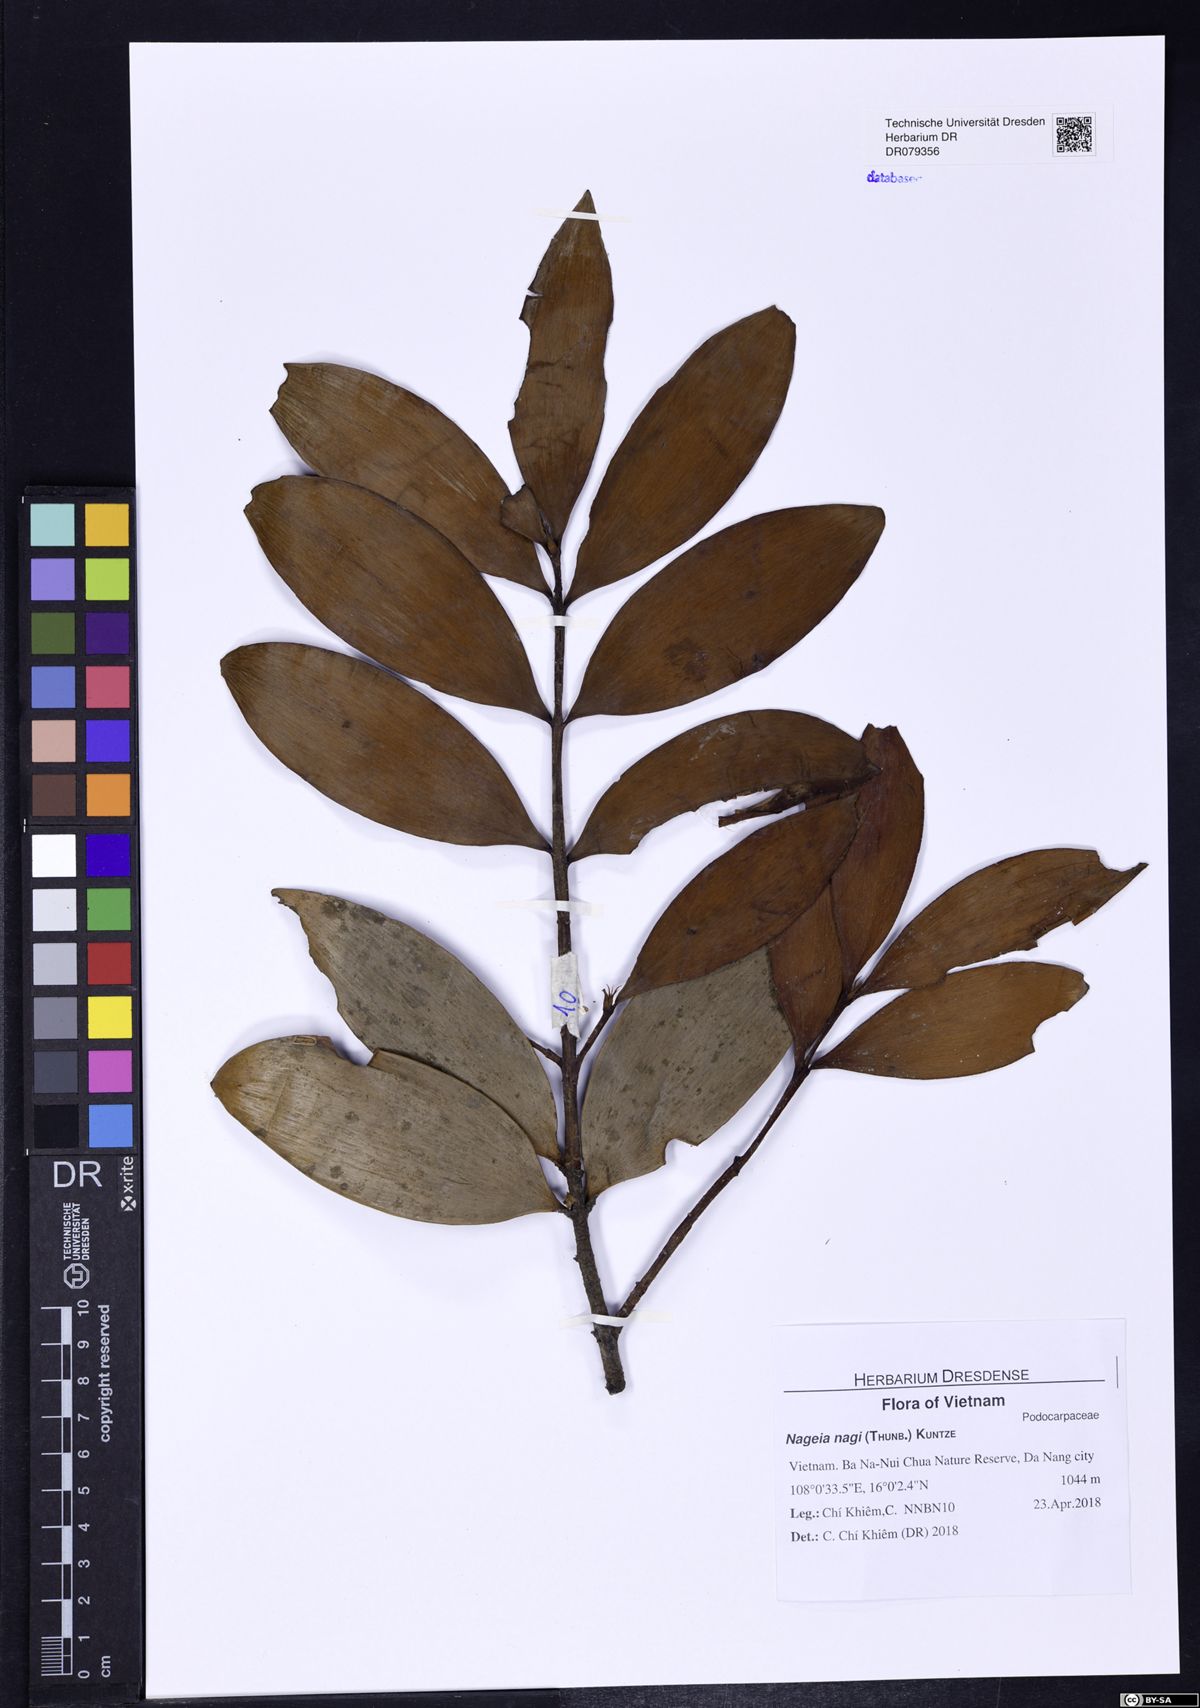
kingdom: Plantae
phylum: Tracheophyta
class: Pinopsida
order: Pinales
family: Podocarpaceae
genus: Nageia
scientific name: Nageia nagi
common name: Kaphal
